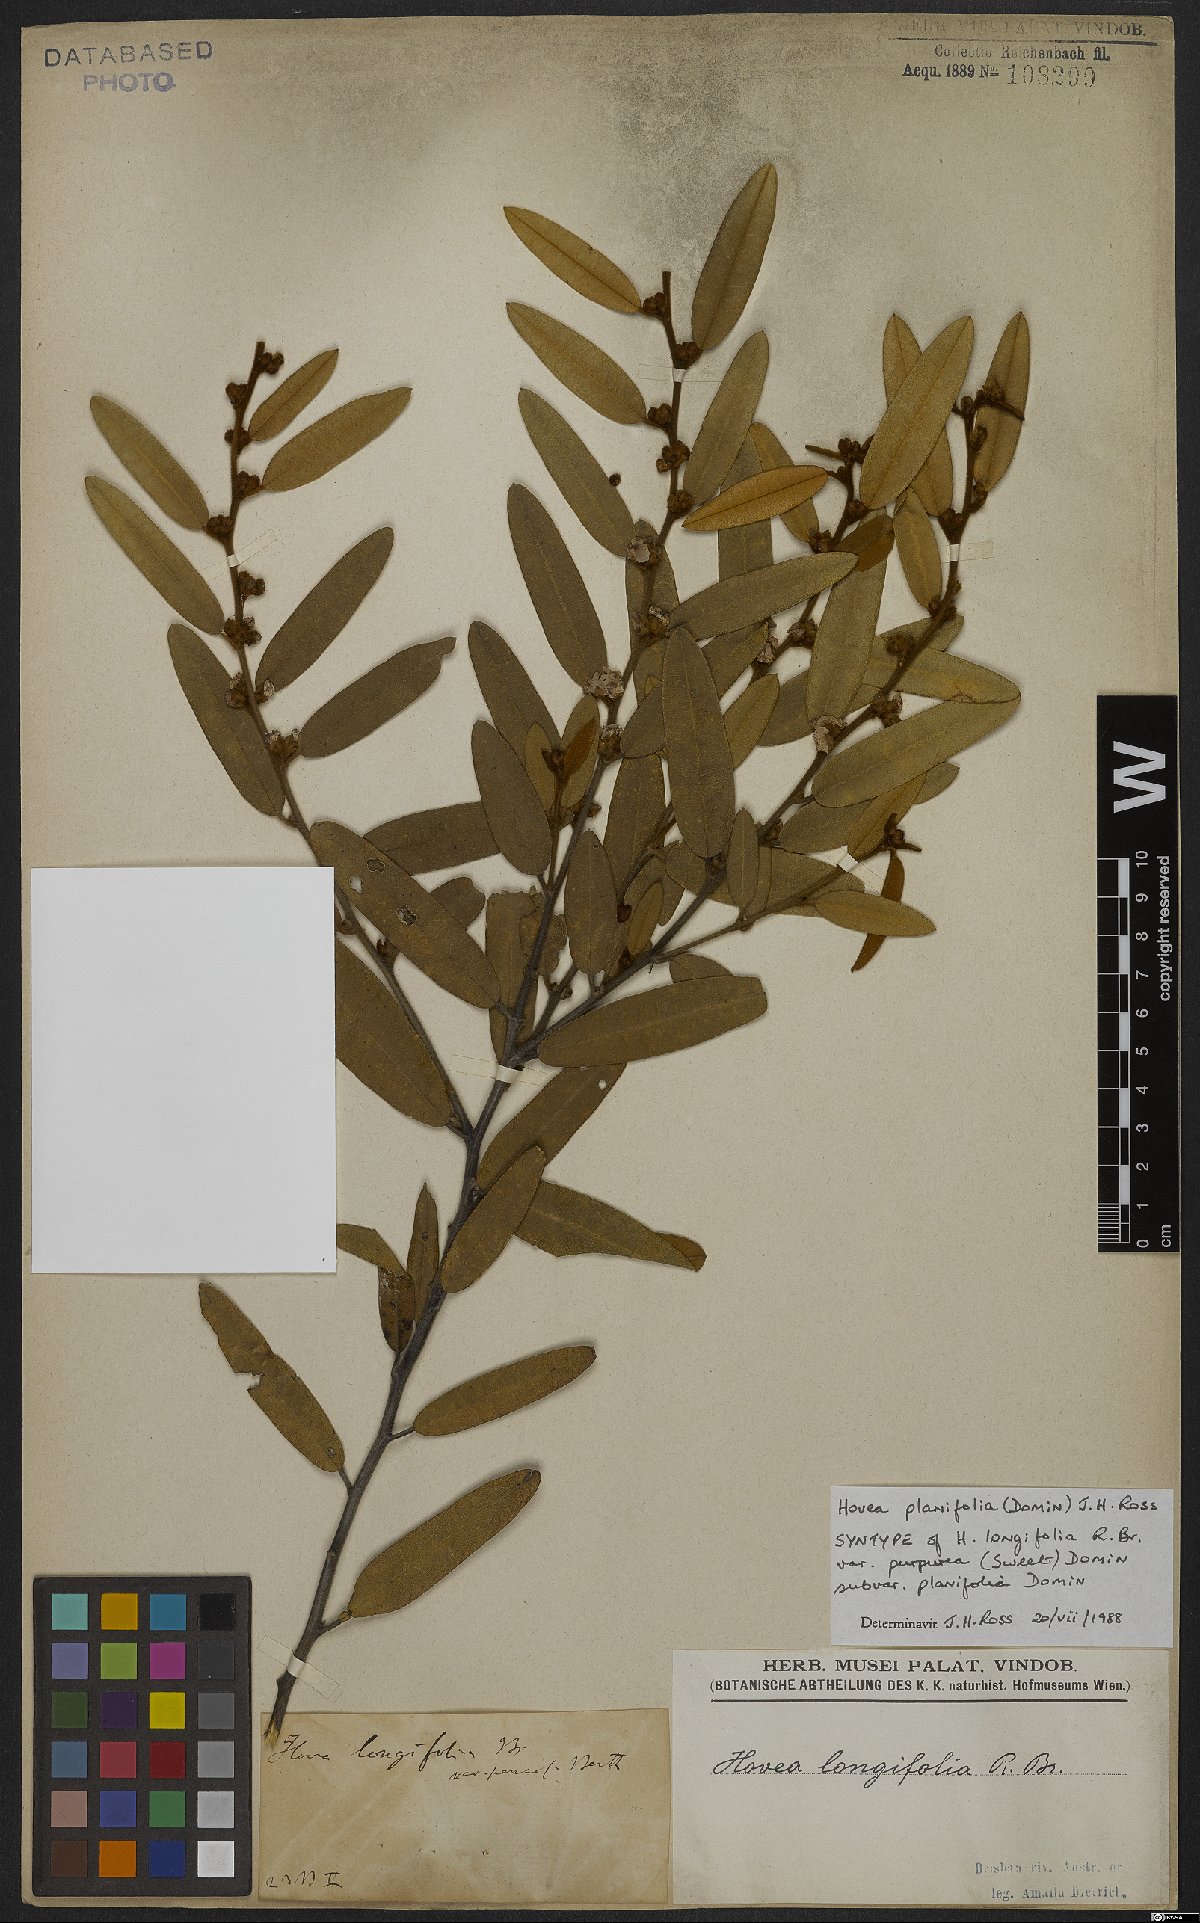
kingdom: Plantae
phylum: Tracheophyta
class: Magnoliopsida
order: Fabales
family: Fabaceae
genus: Hovea
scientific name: Hovea planifolia
